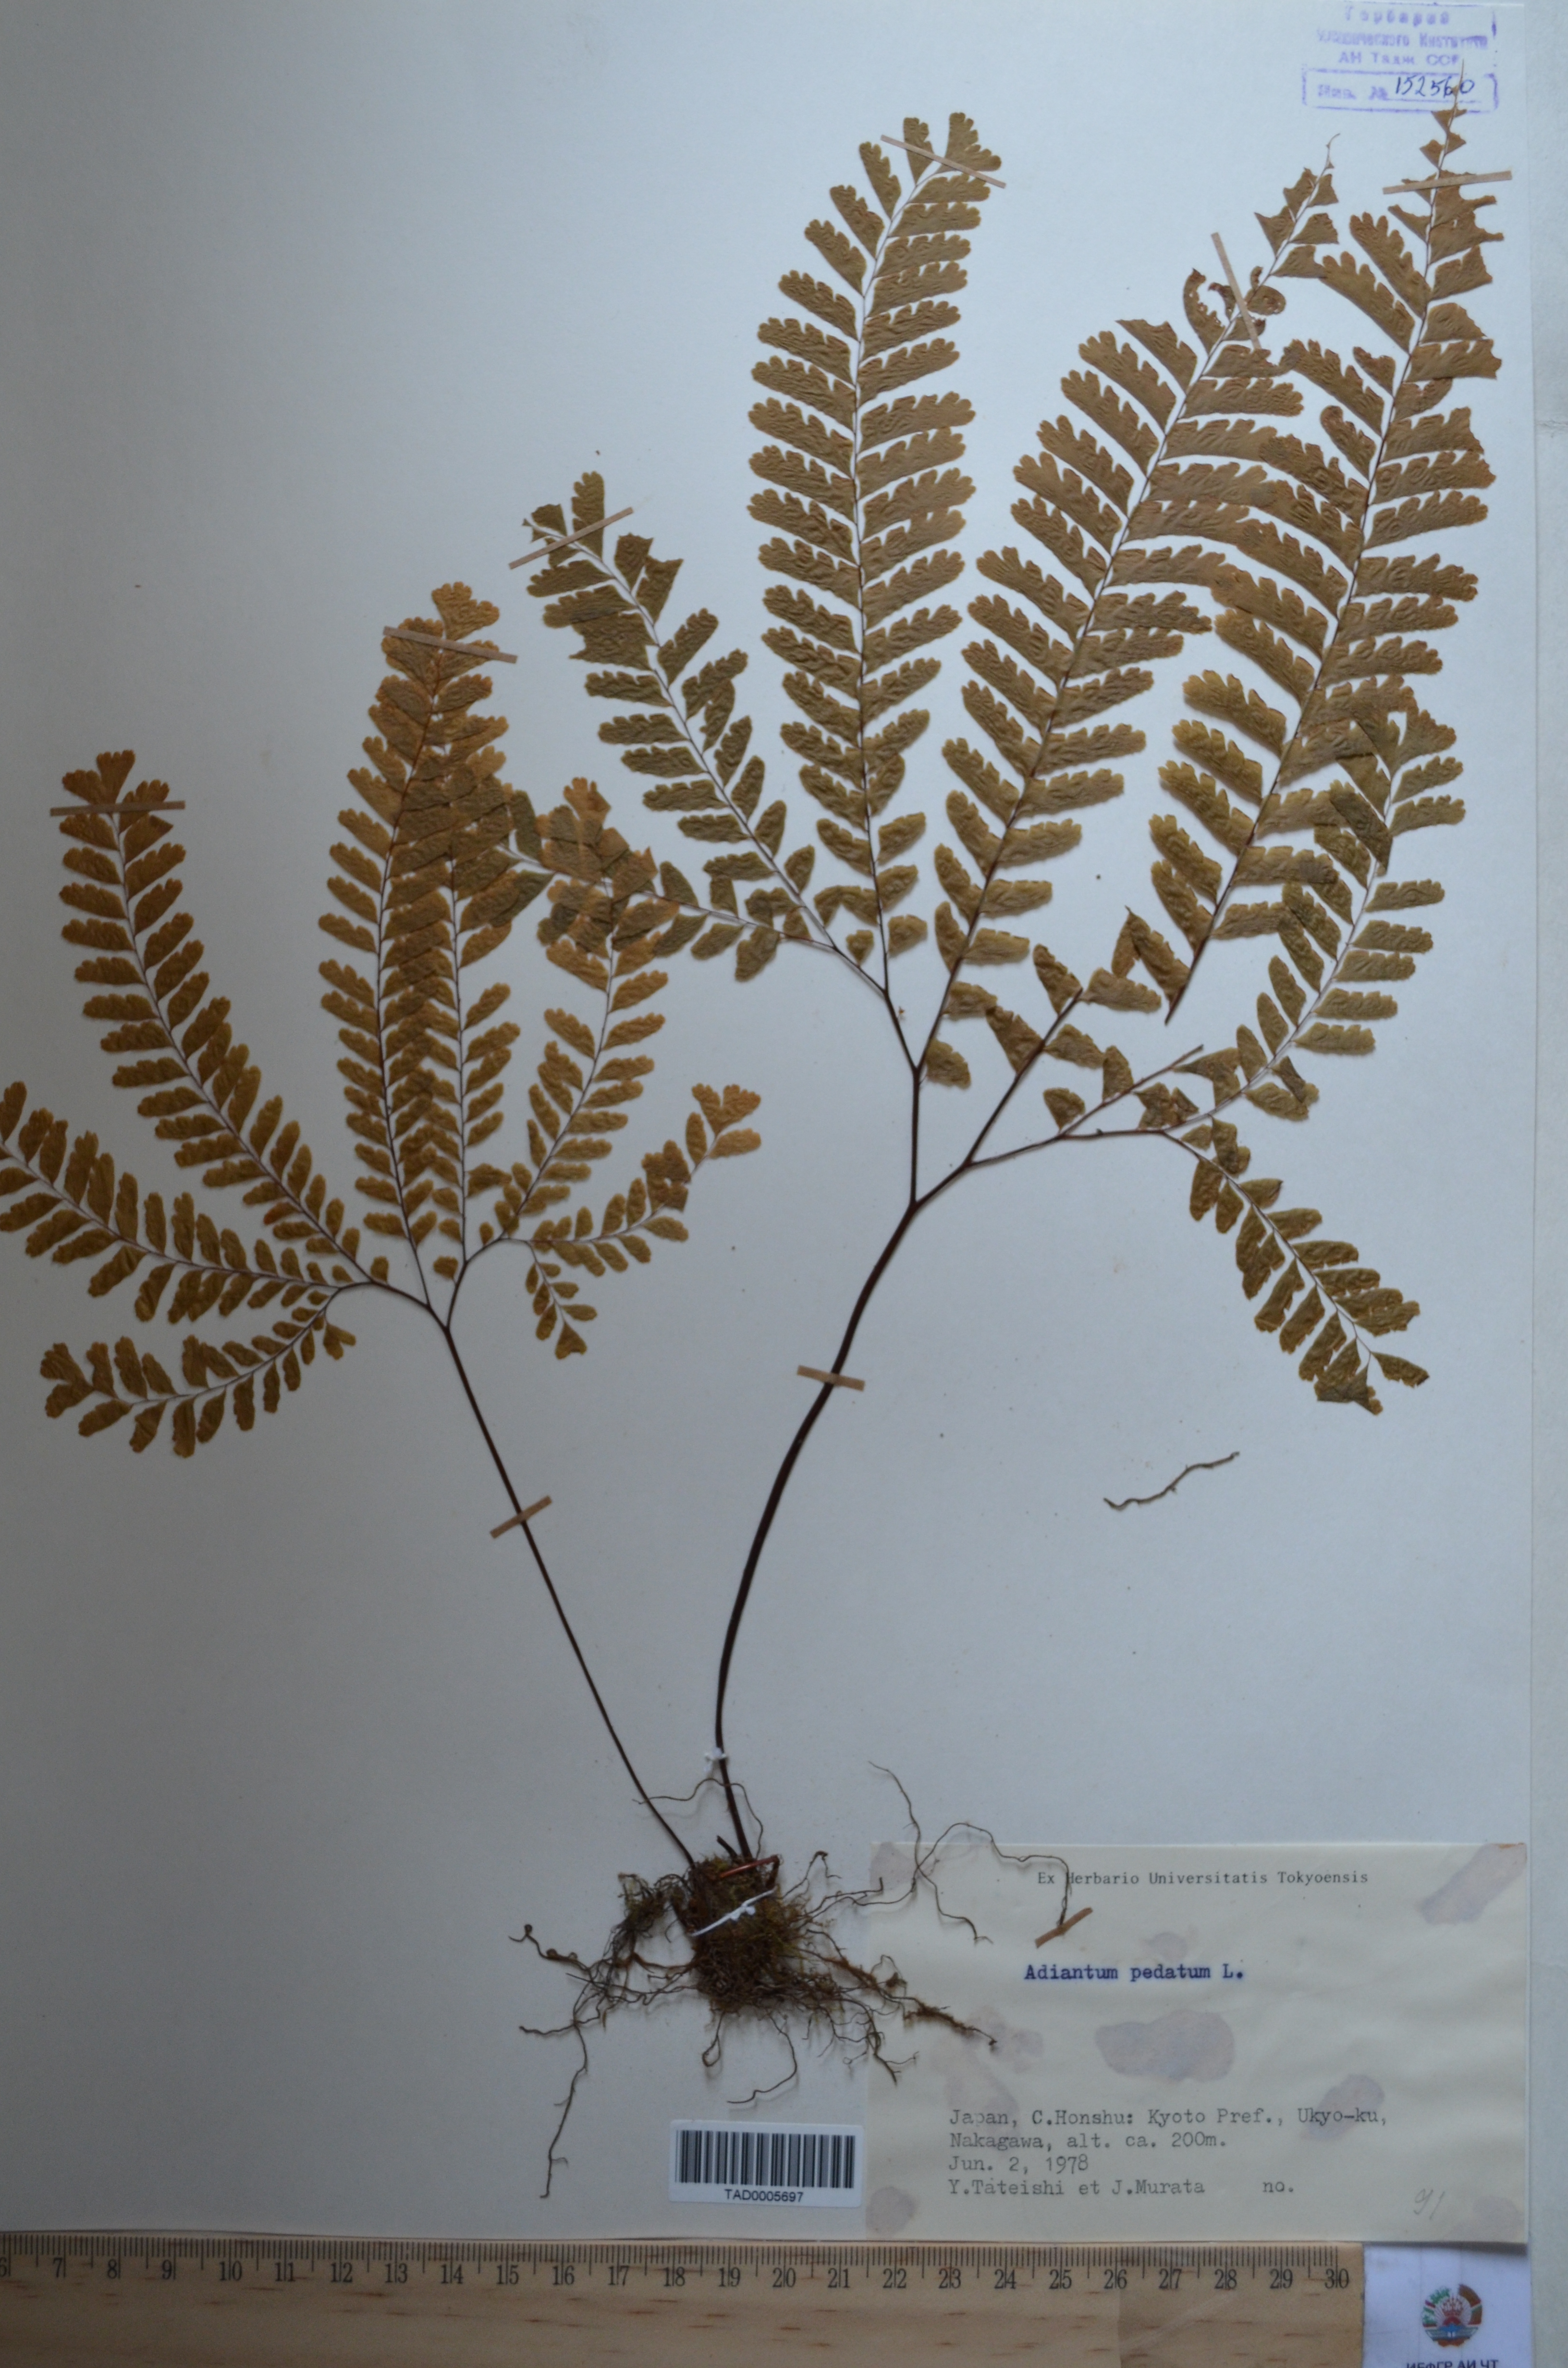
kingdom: Plantae
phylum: Tracheophyta
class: Polypodiopsida
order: Polypodiales
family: Pteridaceae
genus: Adiantum
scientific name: Adiantum pedatum
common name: Five-finger fern
